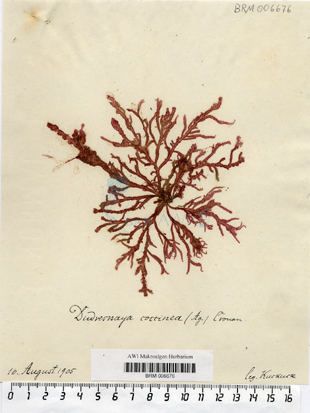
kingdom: Plantae
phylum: Rhodophyta
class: Florideophyceae
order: Gigartinales
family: Dumontiaceae
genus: Dudresnaya
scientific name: Dudresnaya verticillata
